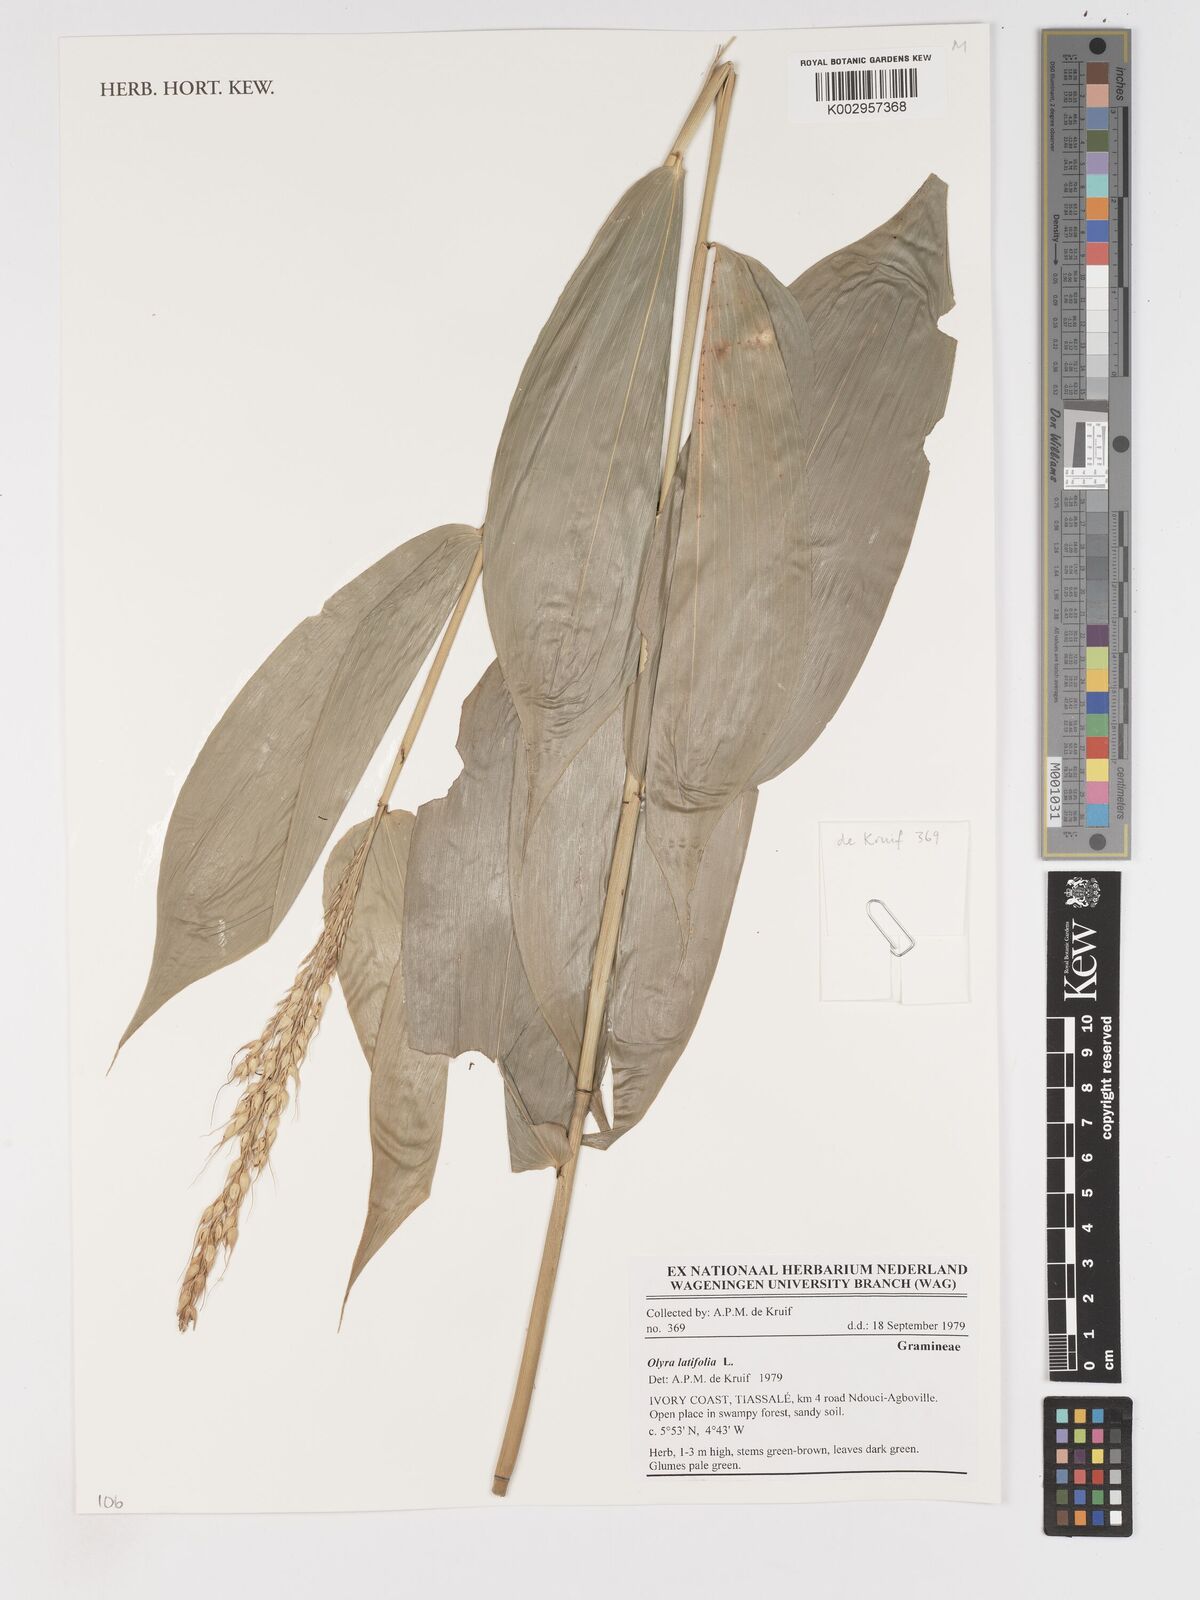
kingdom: Plantae
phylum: Tracheophyta
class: Liliopsida
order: Poales
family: Poaceae
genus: Olyra
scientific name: Olyra latifolia
